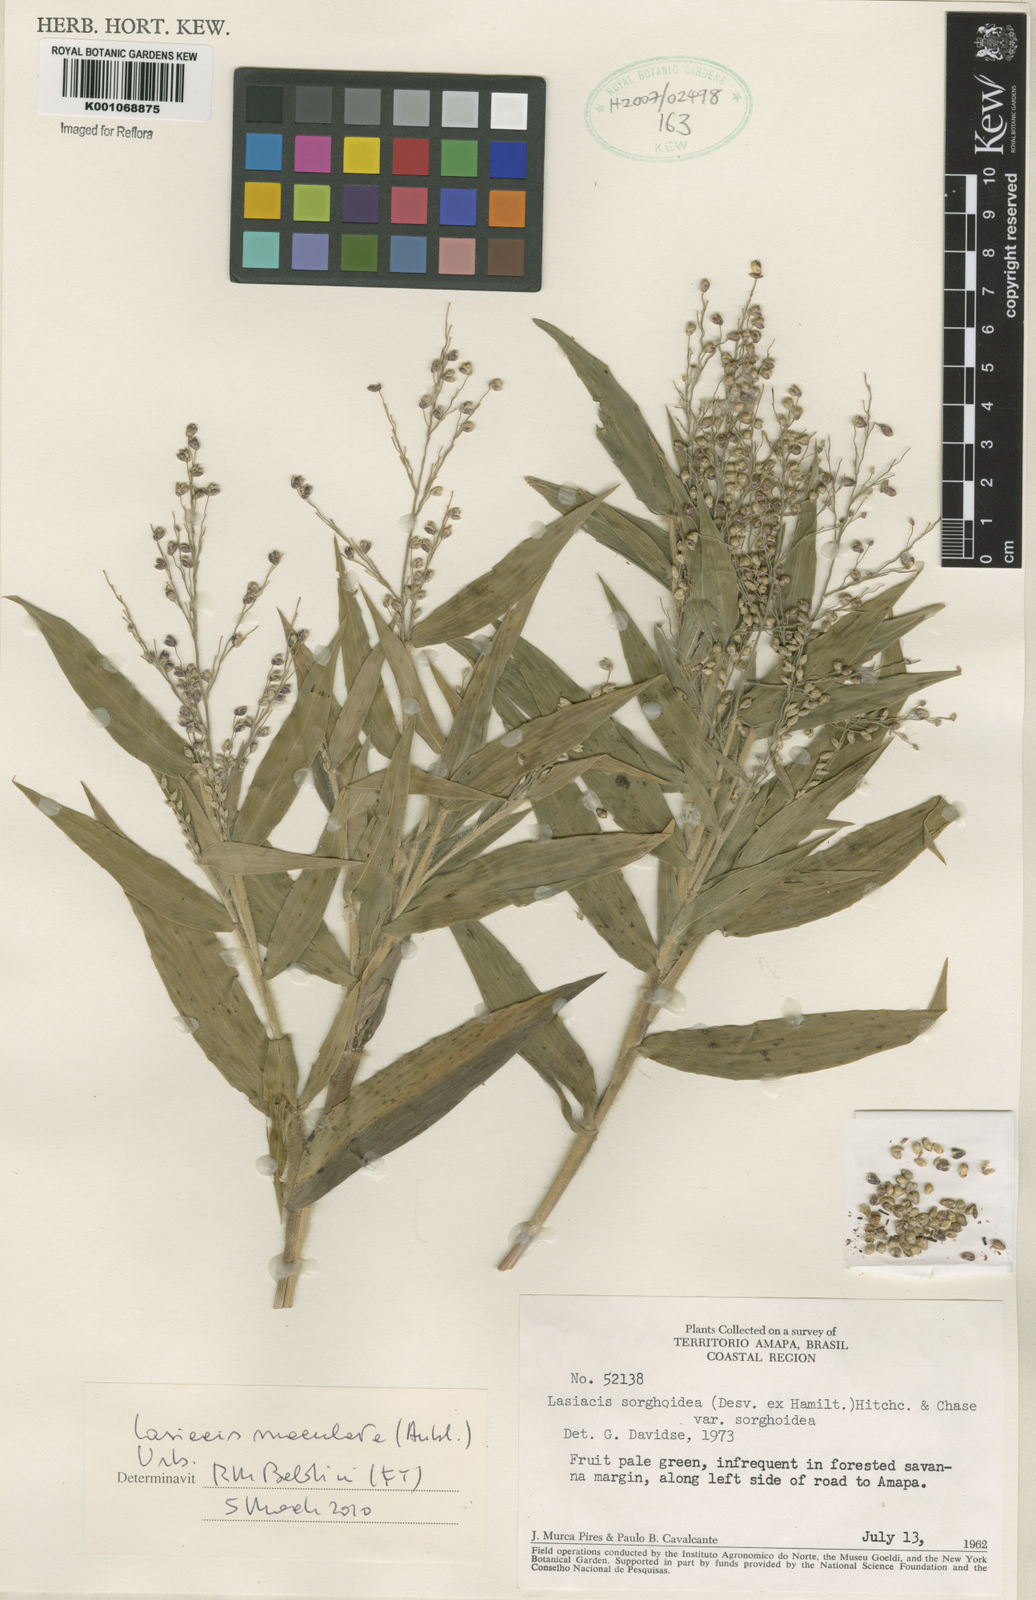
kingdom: Plantae
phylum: Tracheophyta
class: Liliopsida
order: Poales
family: Poaceae
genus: Lasiacis
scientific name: Lasiacis maculata
